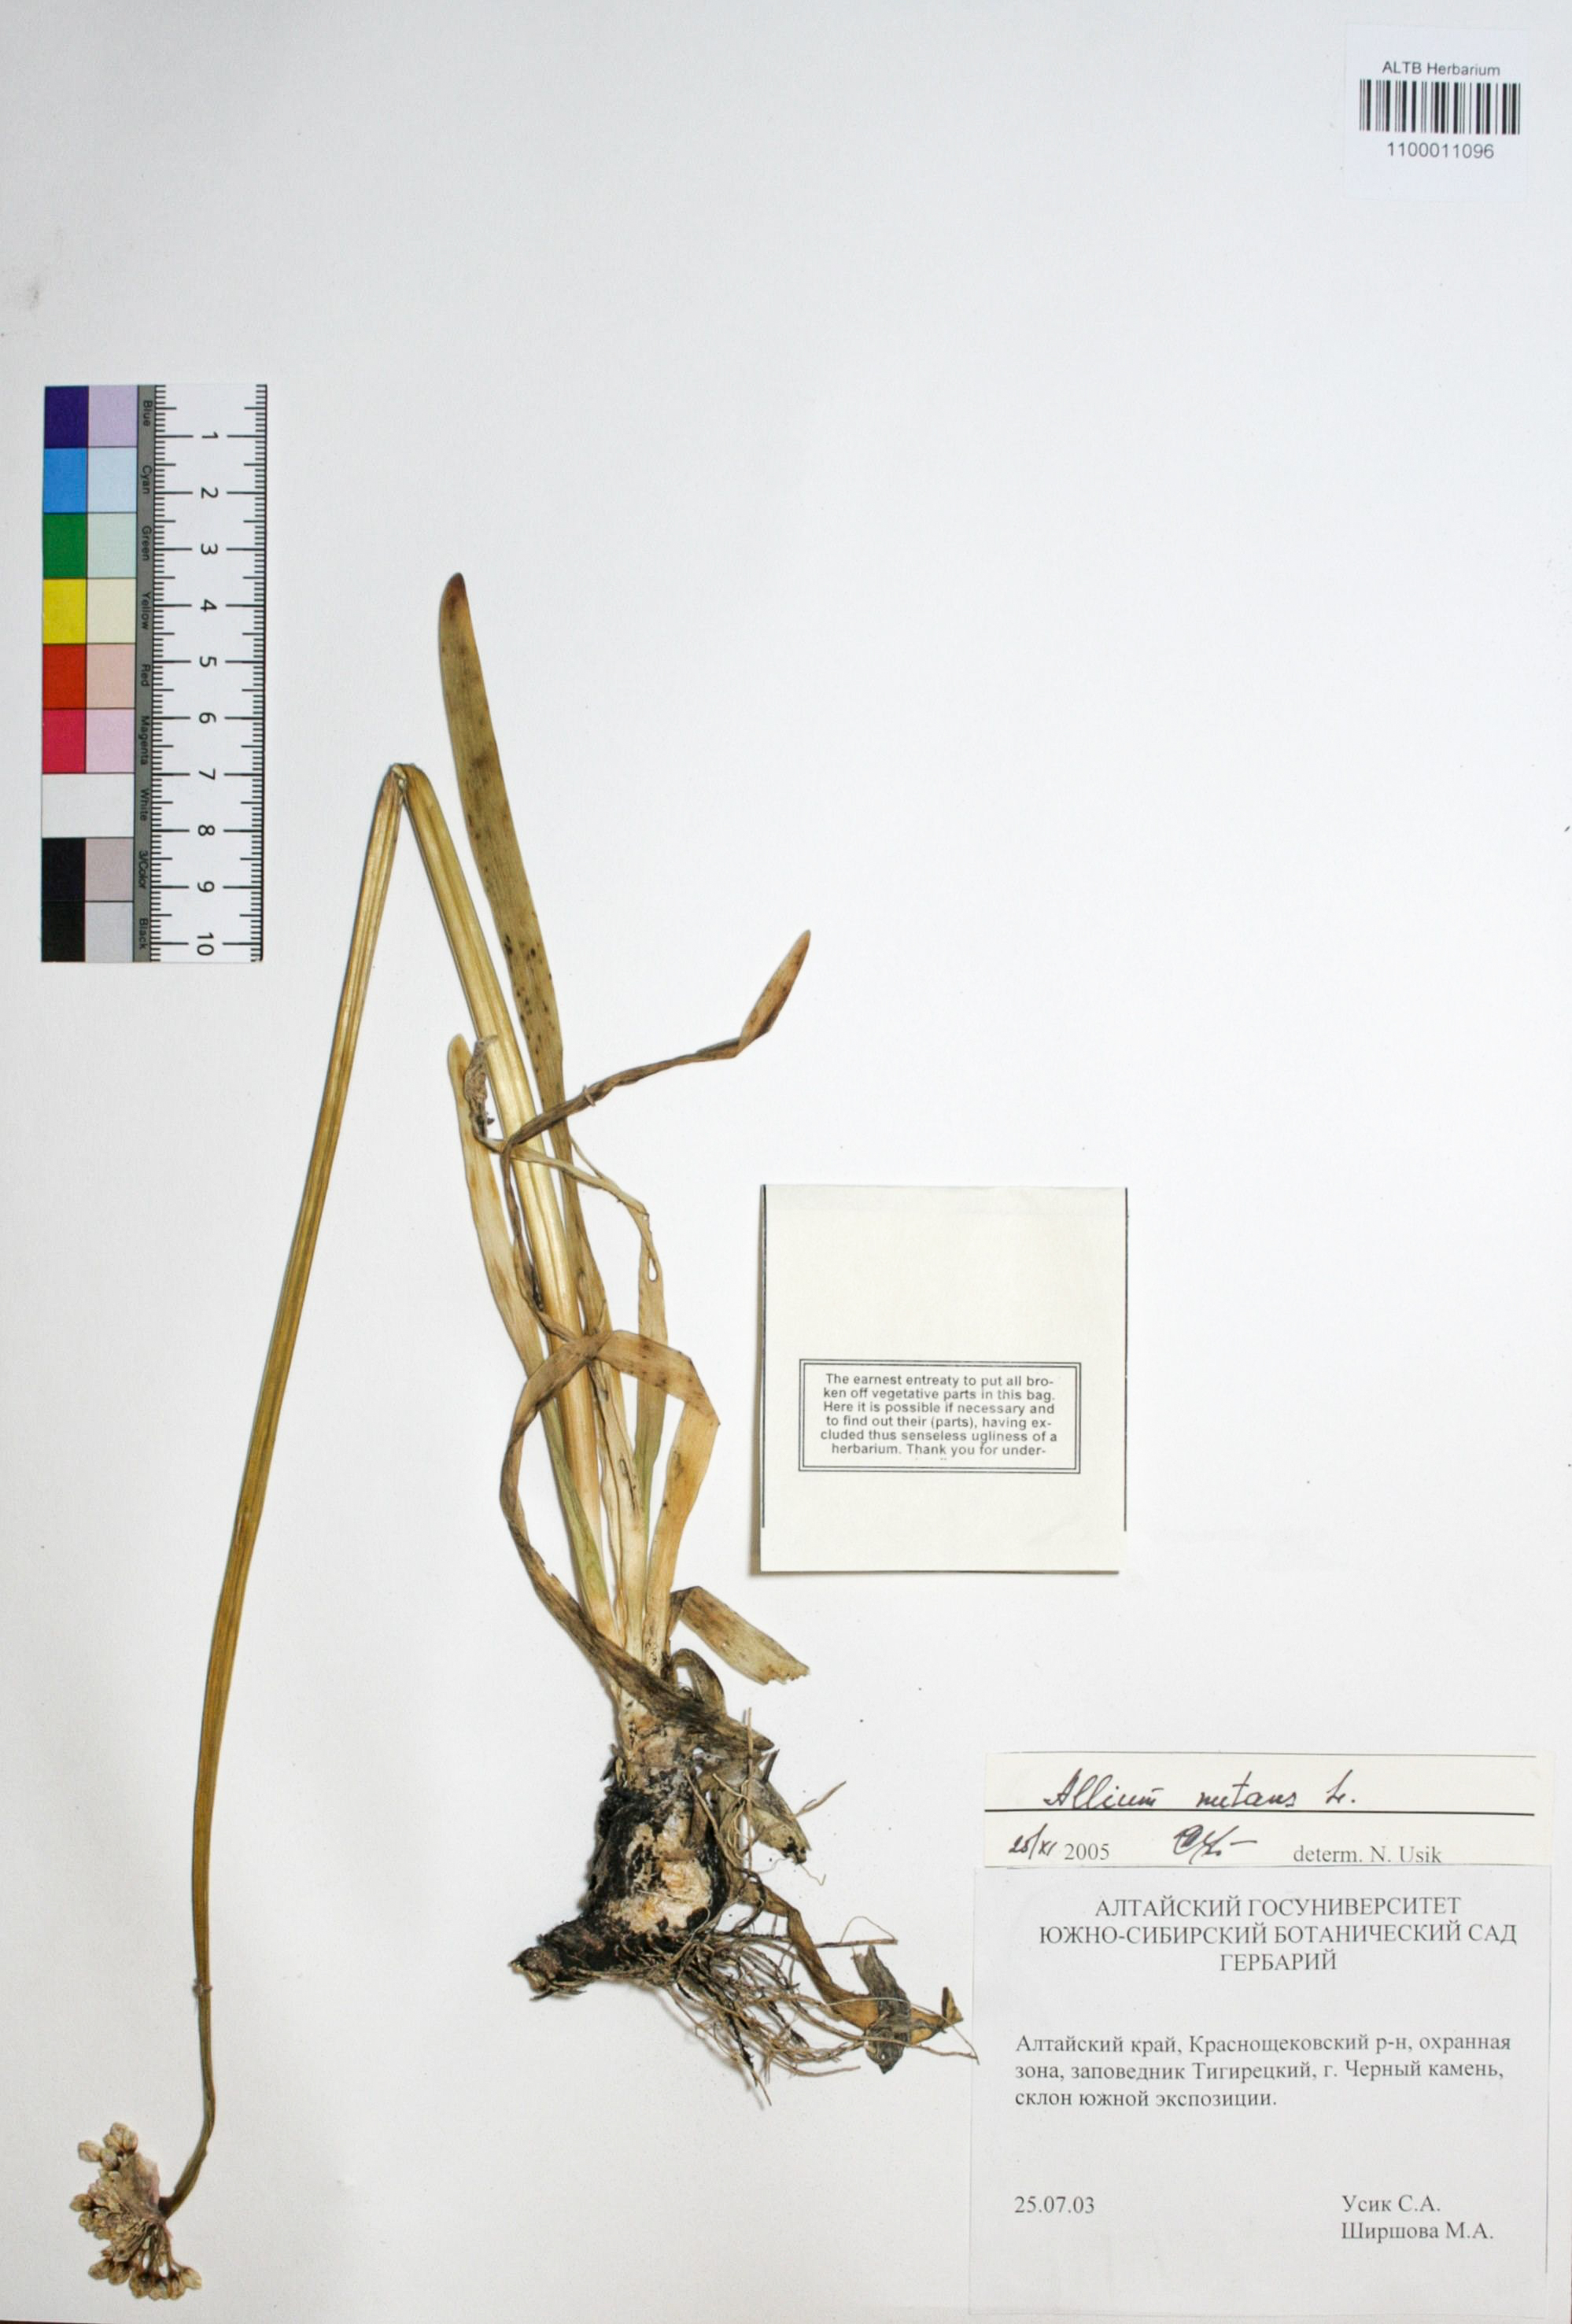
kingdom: Plantae
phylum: Tracheophyta
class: Liliopsida
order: Asparagales
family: Amaryllidaceae
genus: Allium
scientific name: Allium nutans
